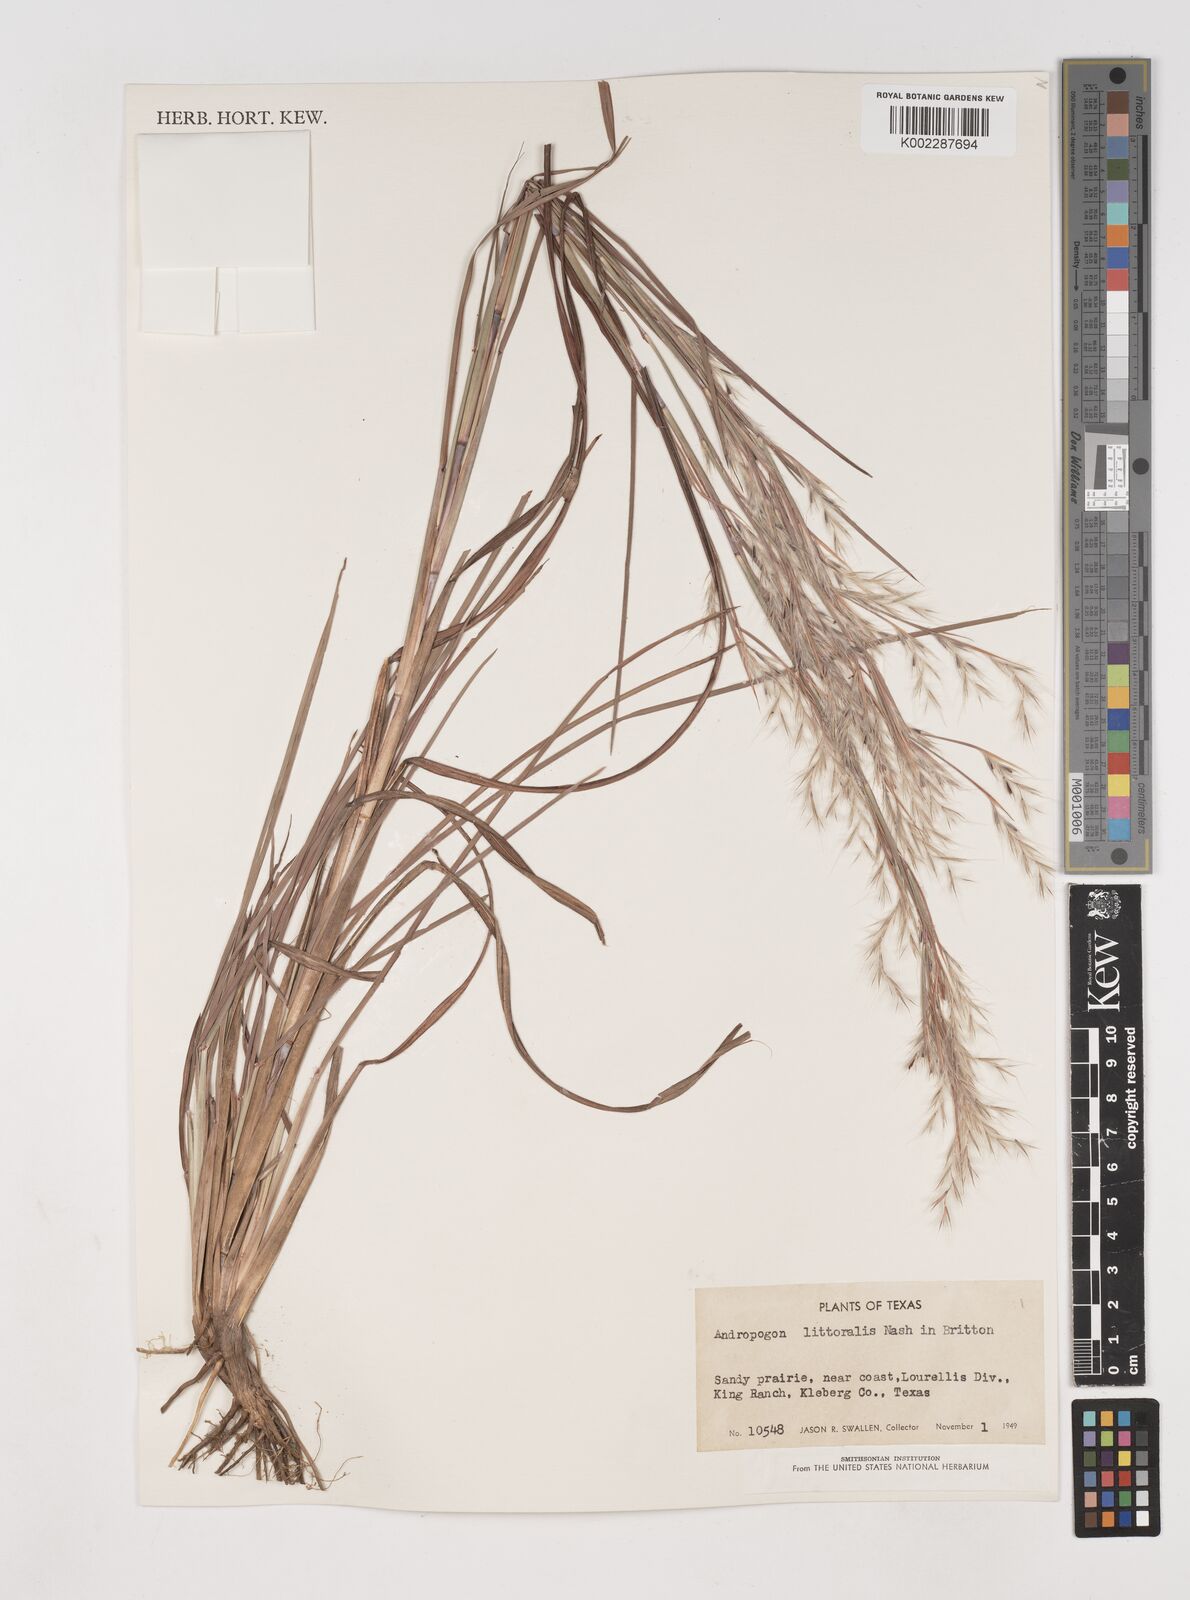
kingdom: Plantae
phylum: Tracheophyta
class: Liliopsida
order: Poales
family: Poaceae
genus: Schizachyrium
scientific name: Schizachyrium scoparium
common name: Little bluestem
